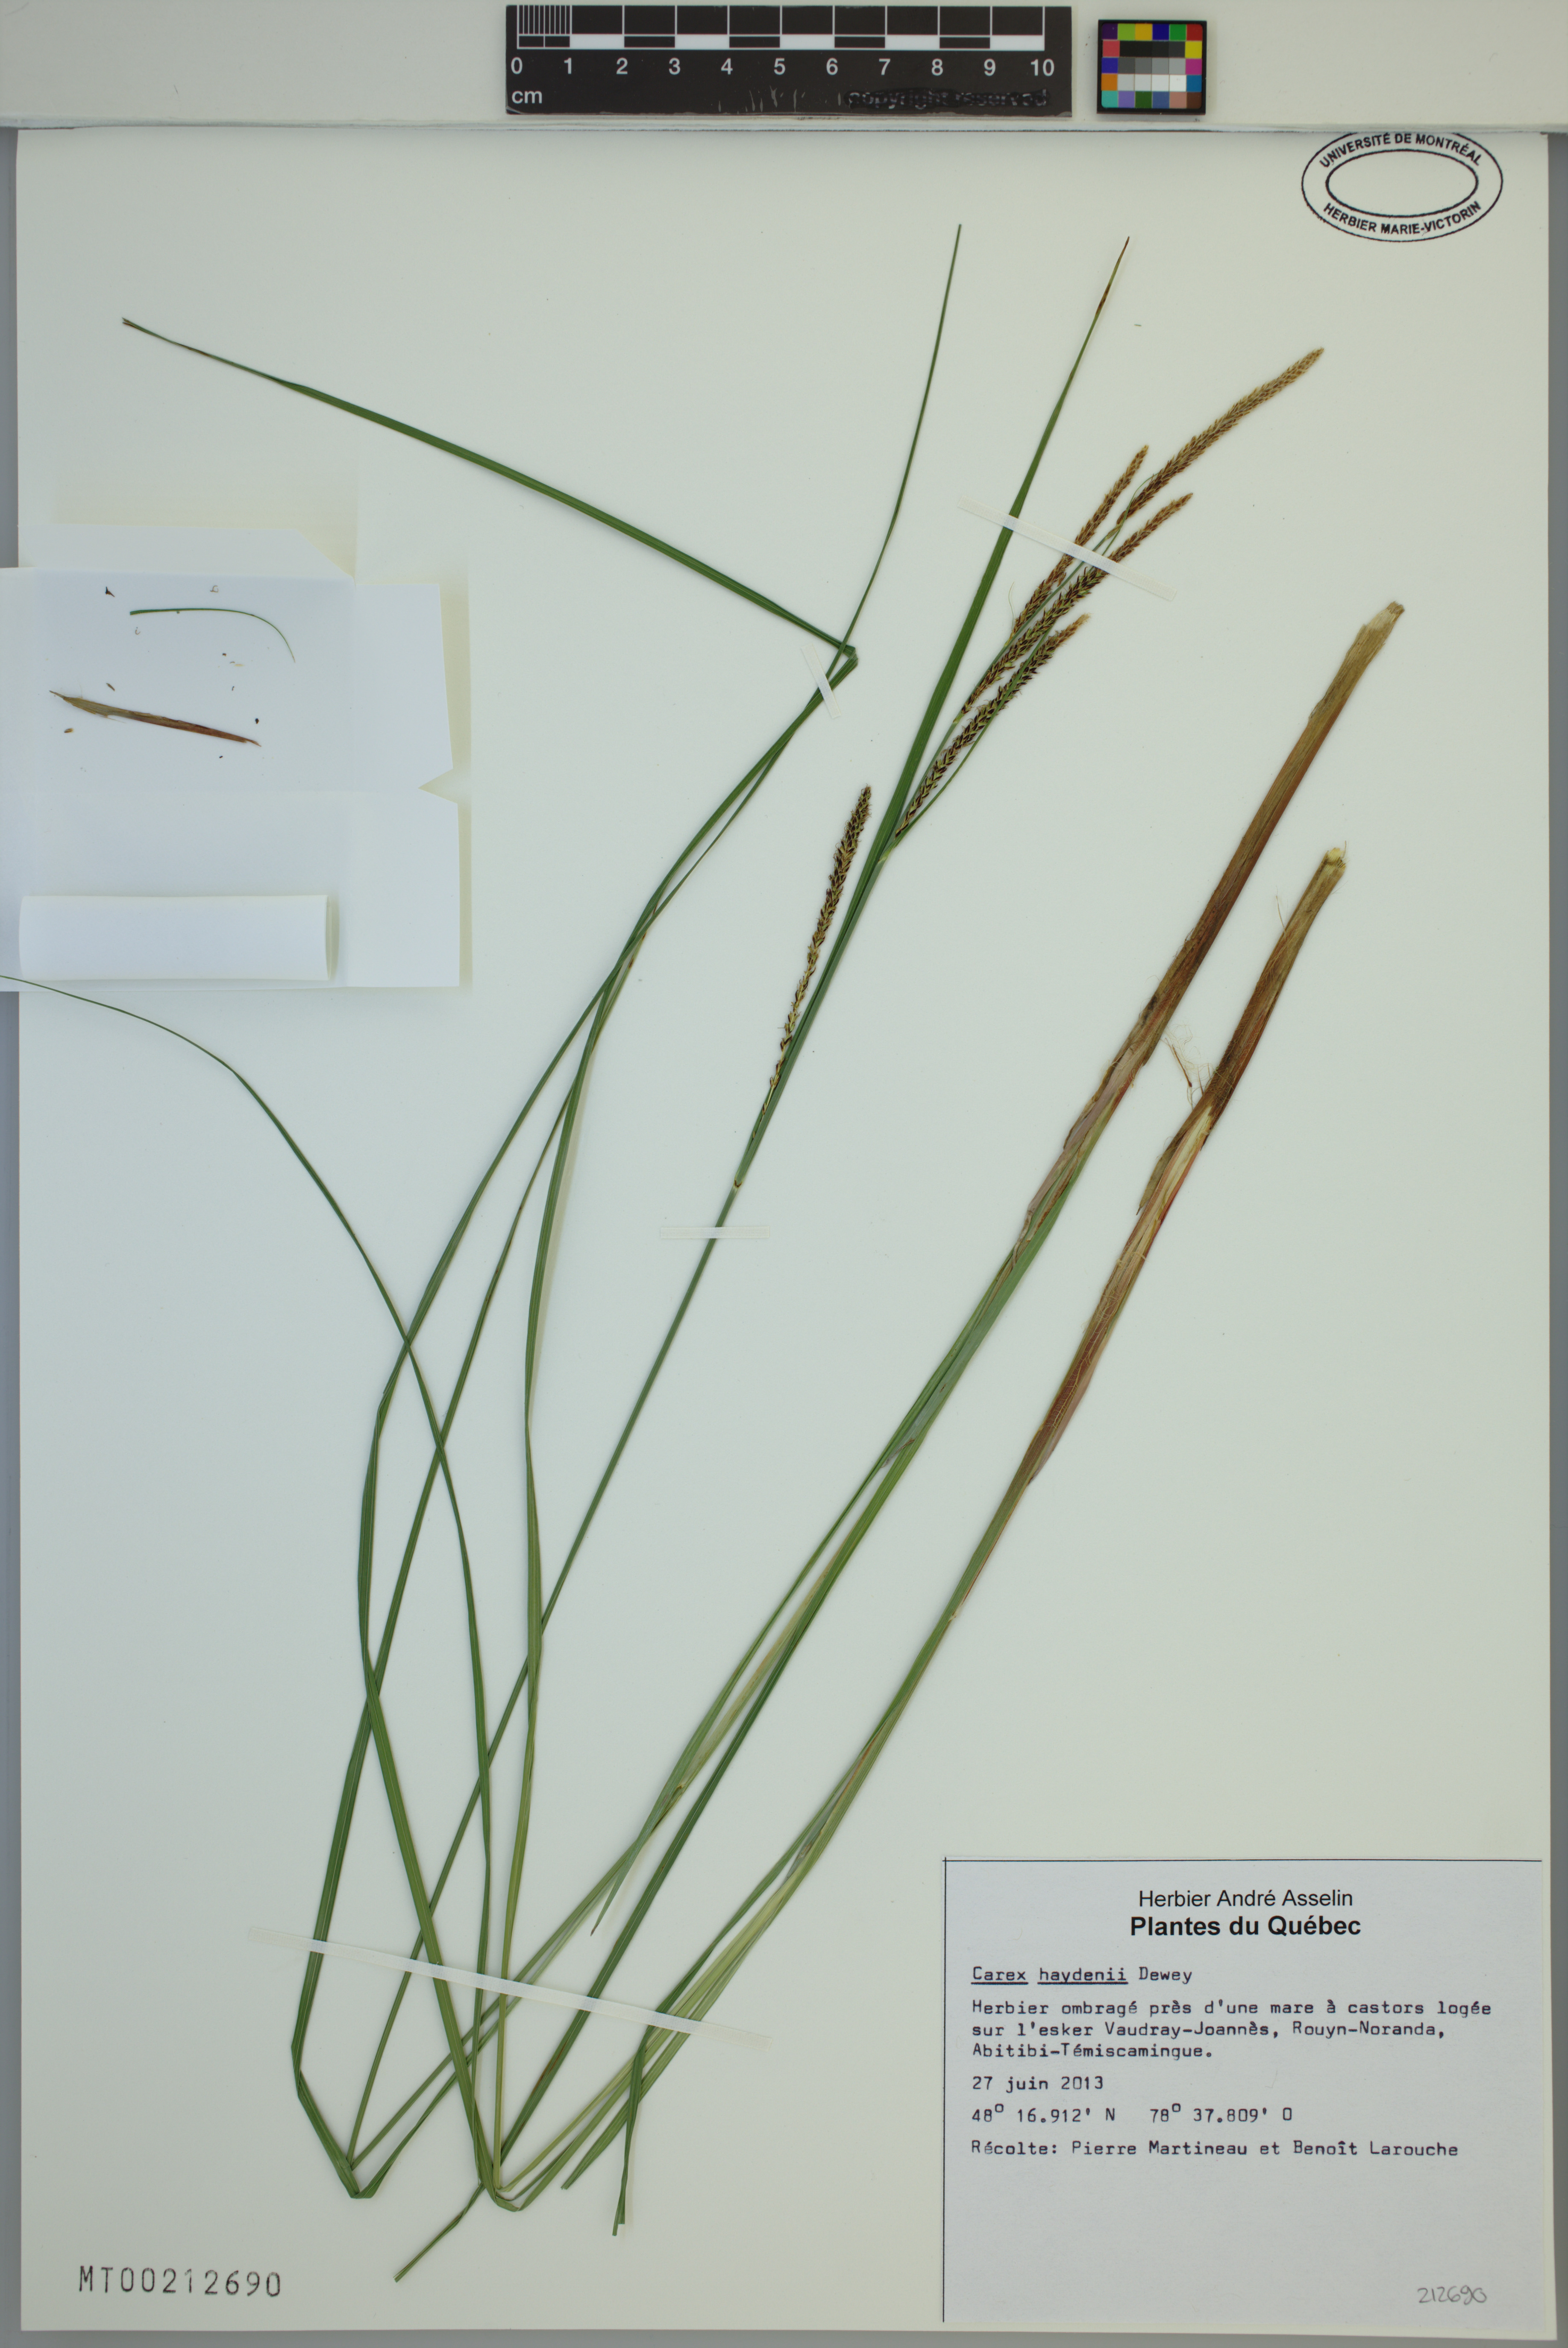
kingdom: Plantae
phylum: Tracheophyta
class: Liliopsida
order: Poales
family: Cyperaceae
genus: Carex
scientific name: Carex haydenii
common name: Hayden's sedge
